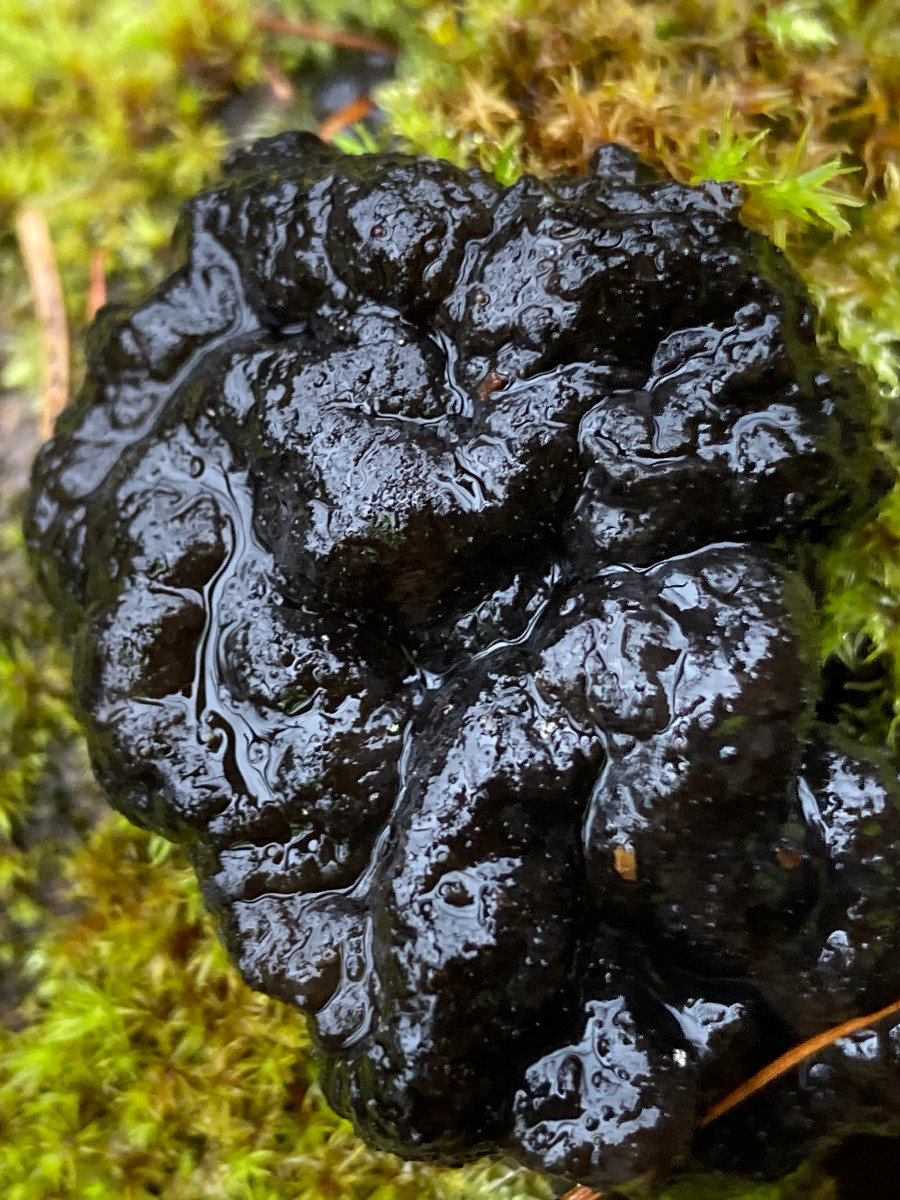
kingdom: Fungi
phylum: Basidiomycota
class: Agaricomycetes
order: Auriculariales
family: Auriculariaceae
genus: Exidia
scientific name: Exidia nigricans
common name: almindelig bævretop
